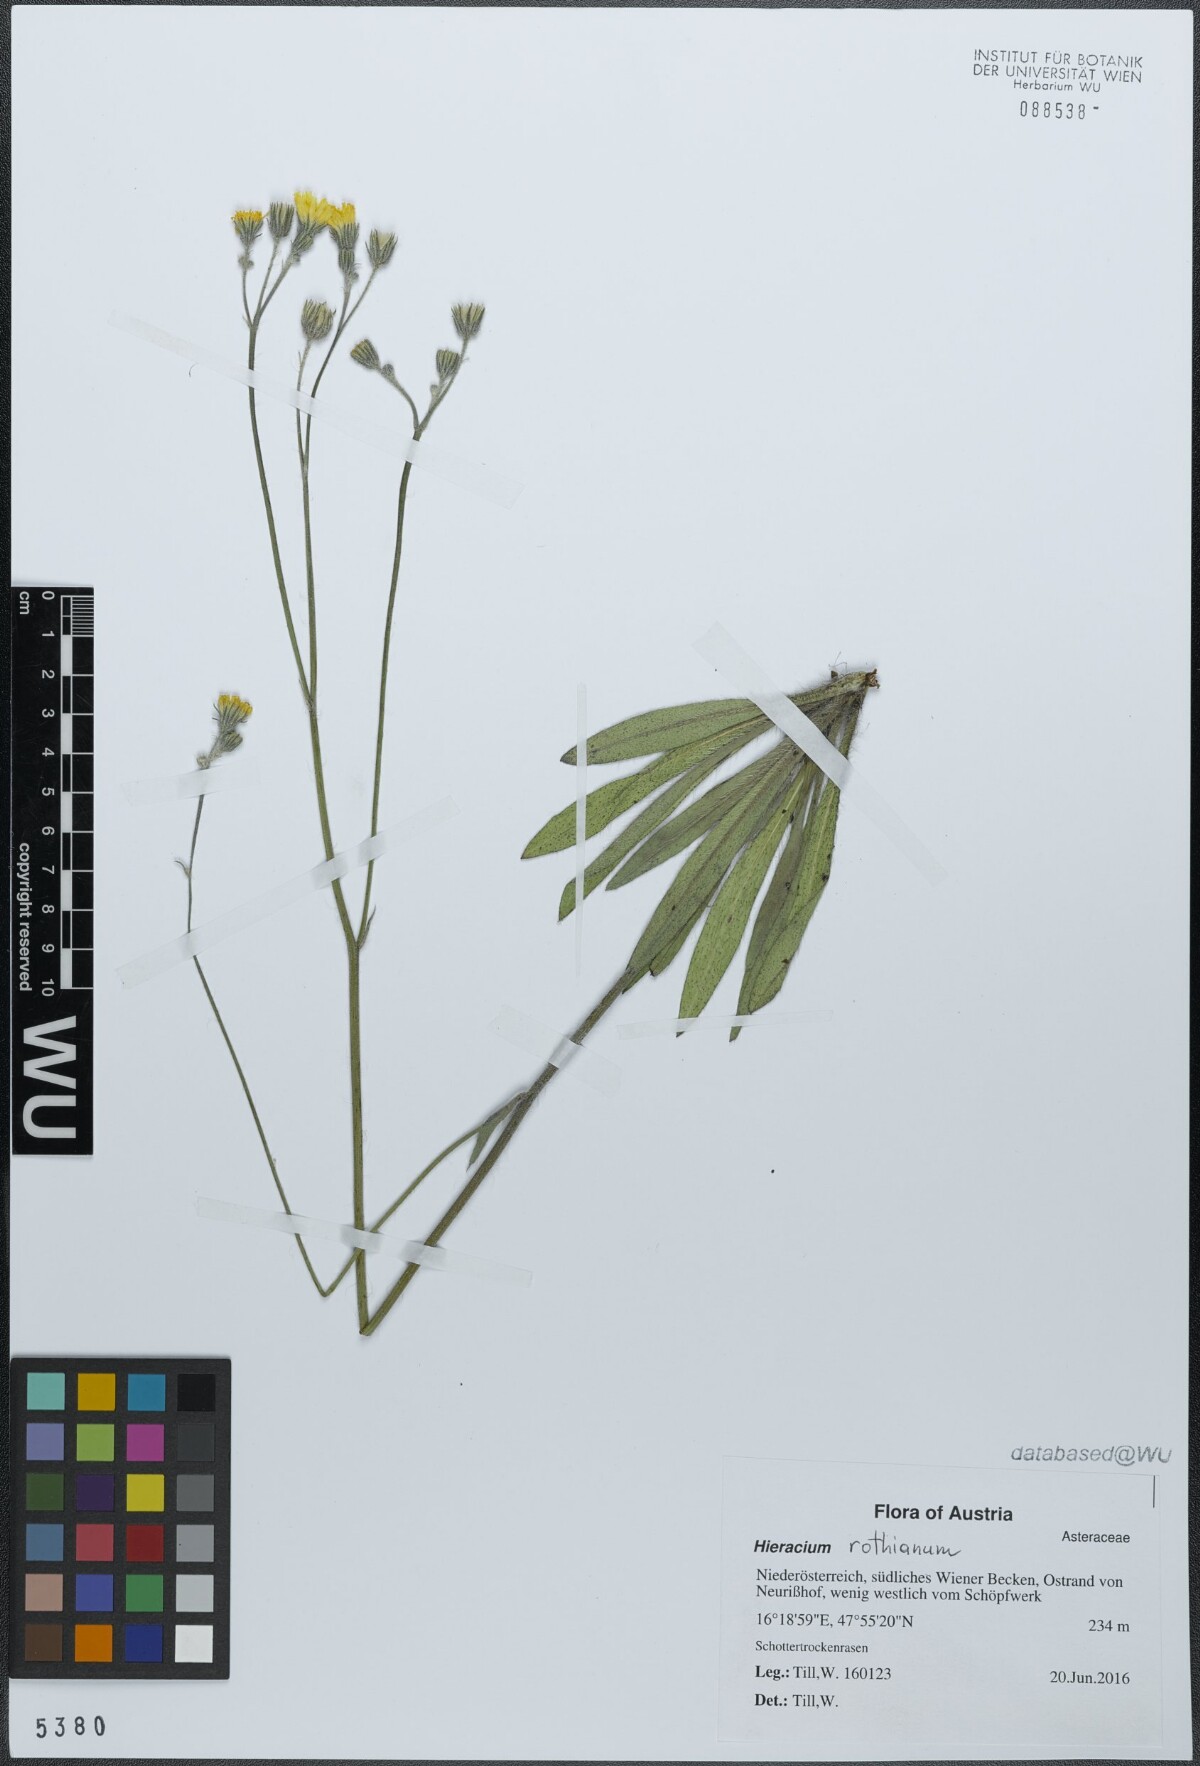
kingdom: Plantae
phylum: Tracheophyta
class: Magnoliopsida
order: Asterales
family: Asteraceae
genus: Pilosella
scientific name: Pilosella rothiana
